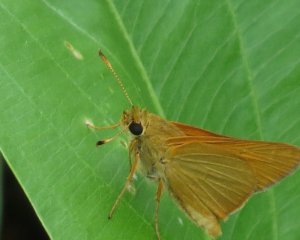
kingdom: Animalia
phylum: Arthropoda
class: Insecta
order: Lepidoptera
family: Hesperiidae
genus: Problema
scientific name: Problema bulenta
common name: Rare Skipper
